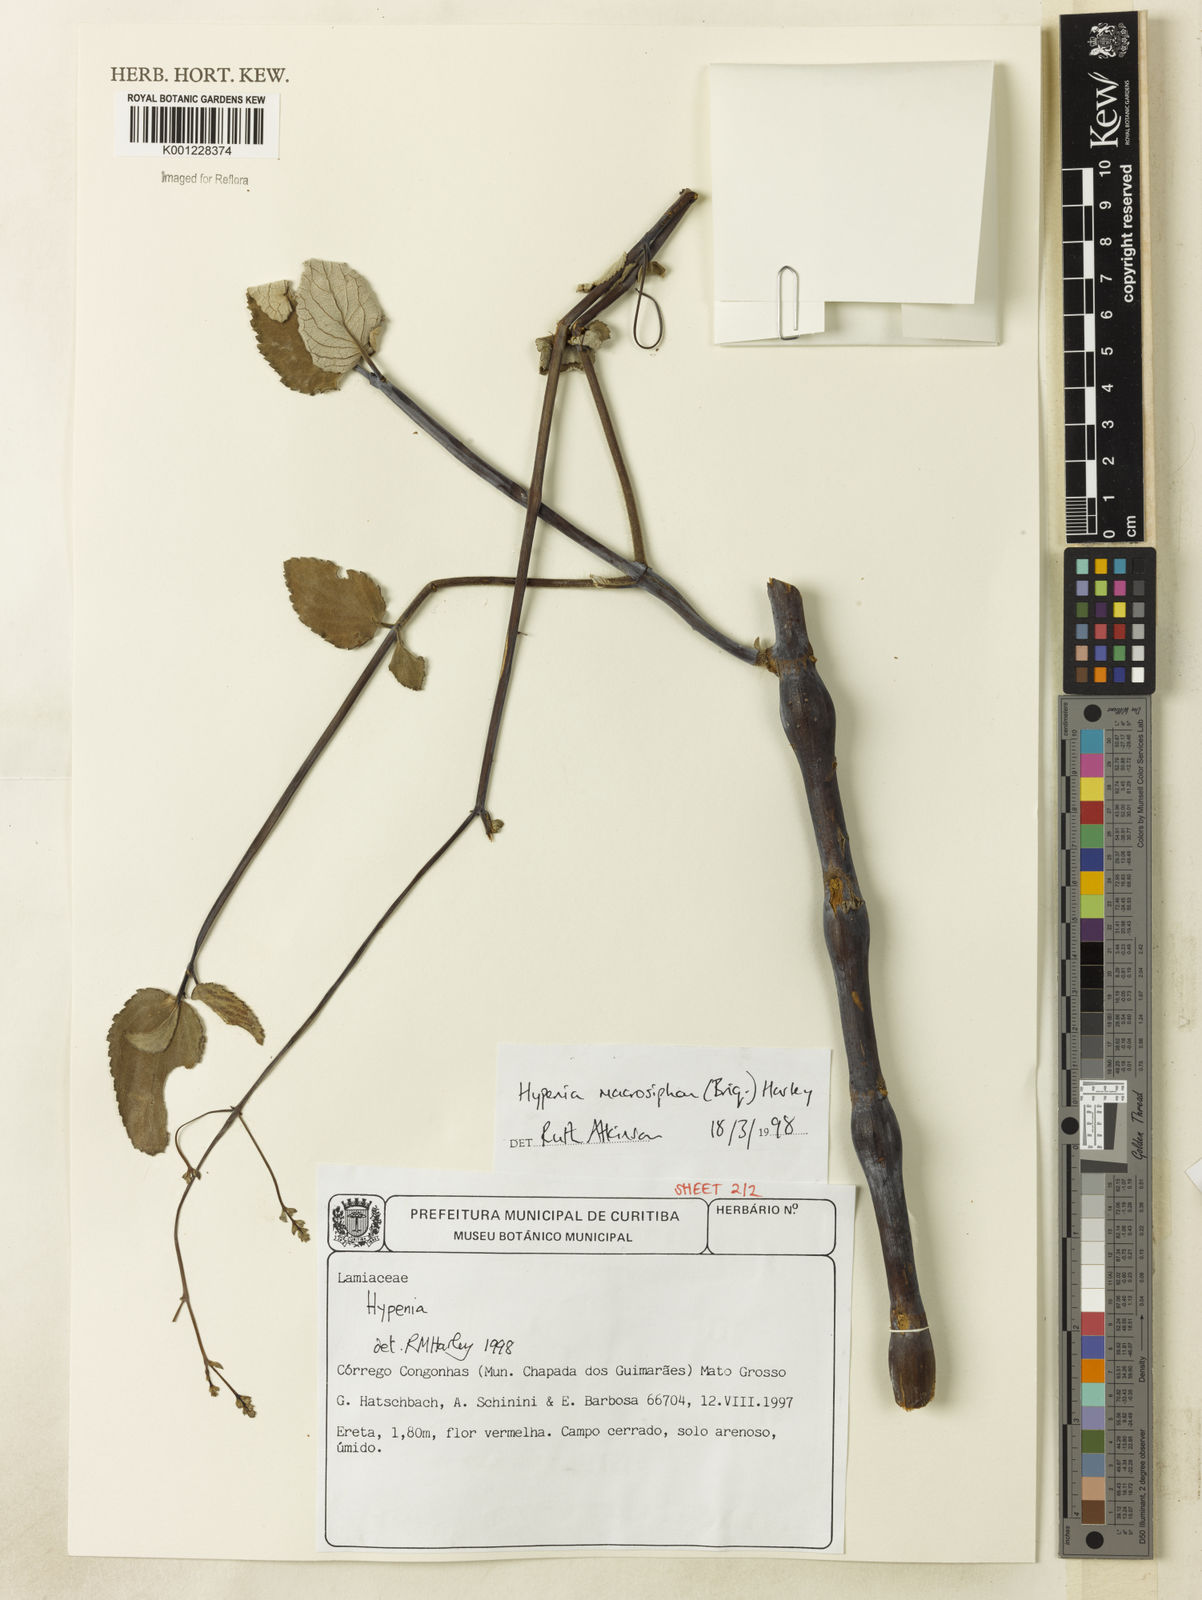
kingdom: Plantae
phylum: Tracheophyta
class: Magnoliopsida
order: Lamiales
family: Lamiaceae
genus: Hypenia
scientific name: Hypenia macrosiphon
